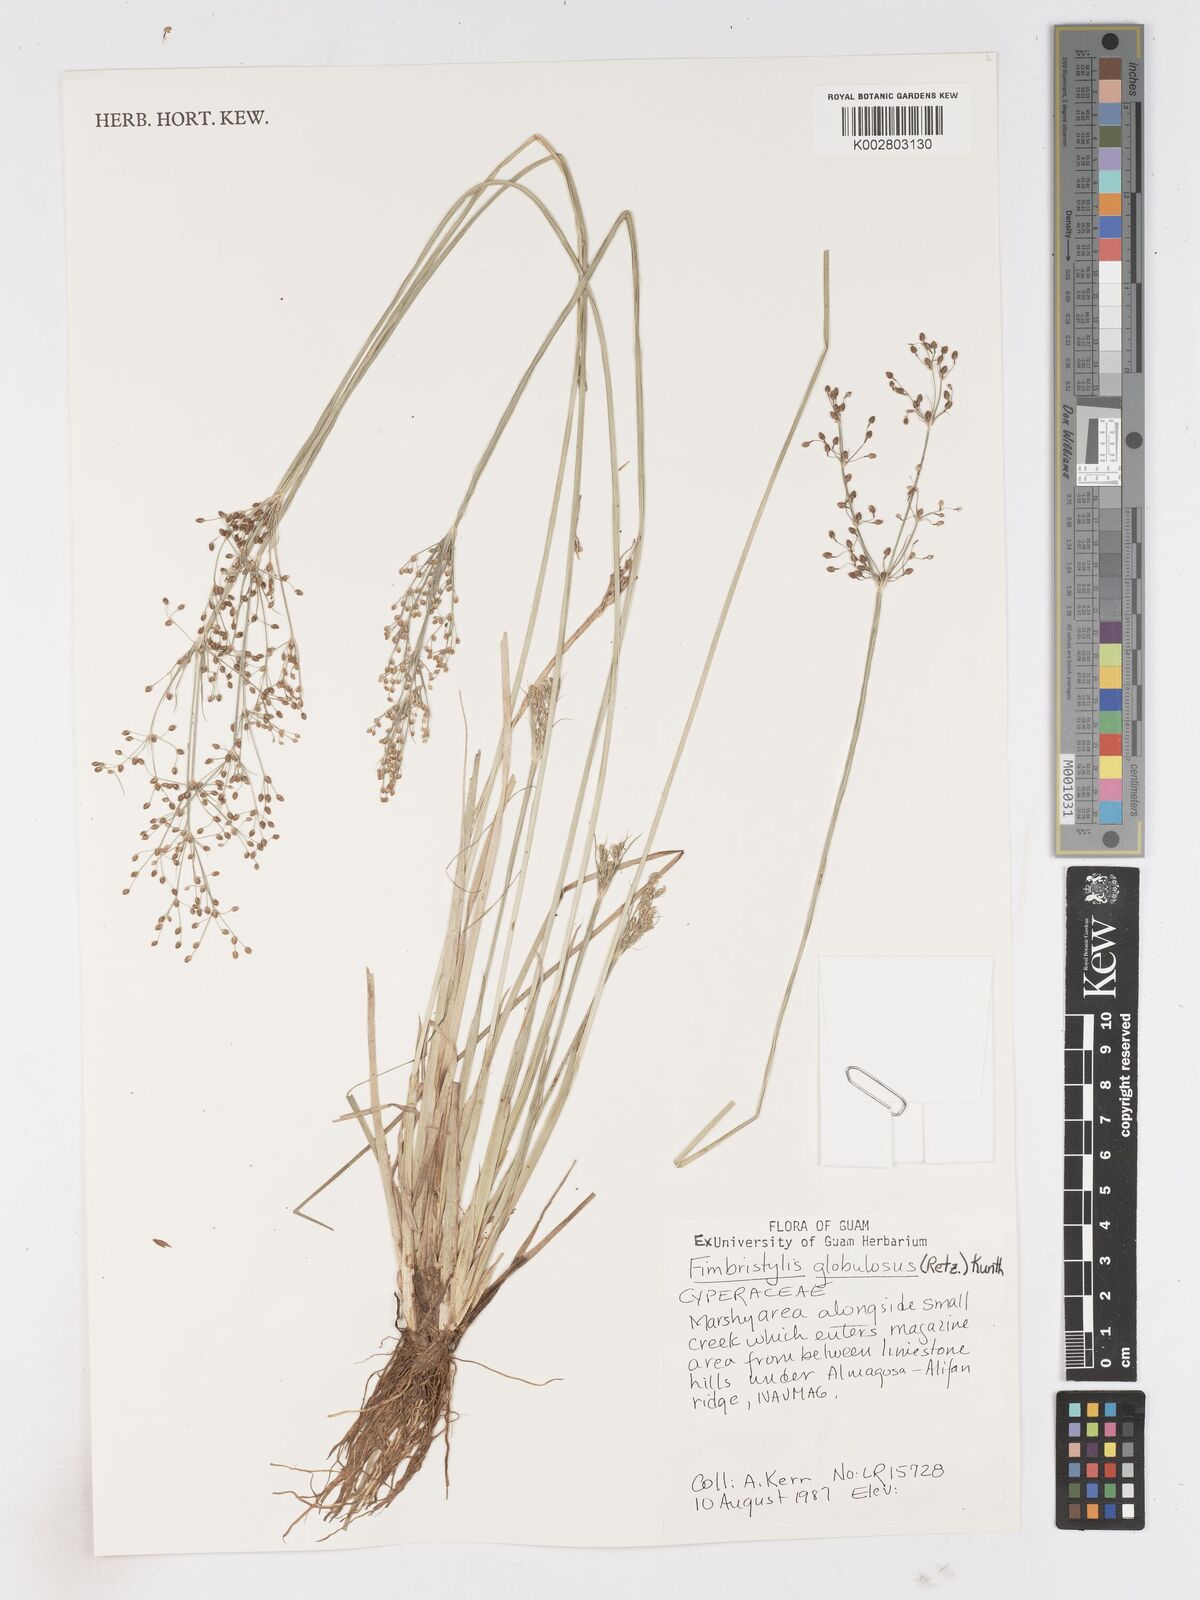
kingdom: Plantae
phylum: Tracheophyta
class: Liliopsida
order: Poales
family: Cyperaceae
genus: Fimbristylis
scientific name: Fimbristylis umbellaris
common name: Globular fimbristylis
